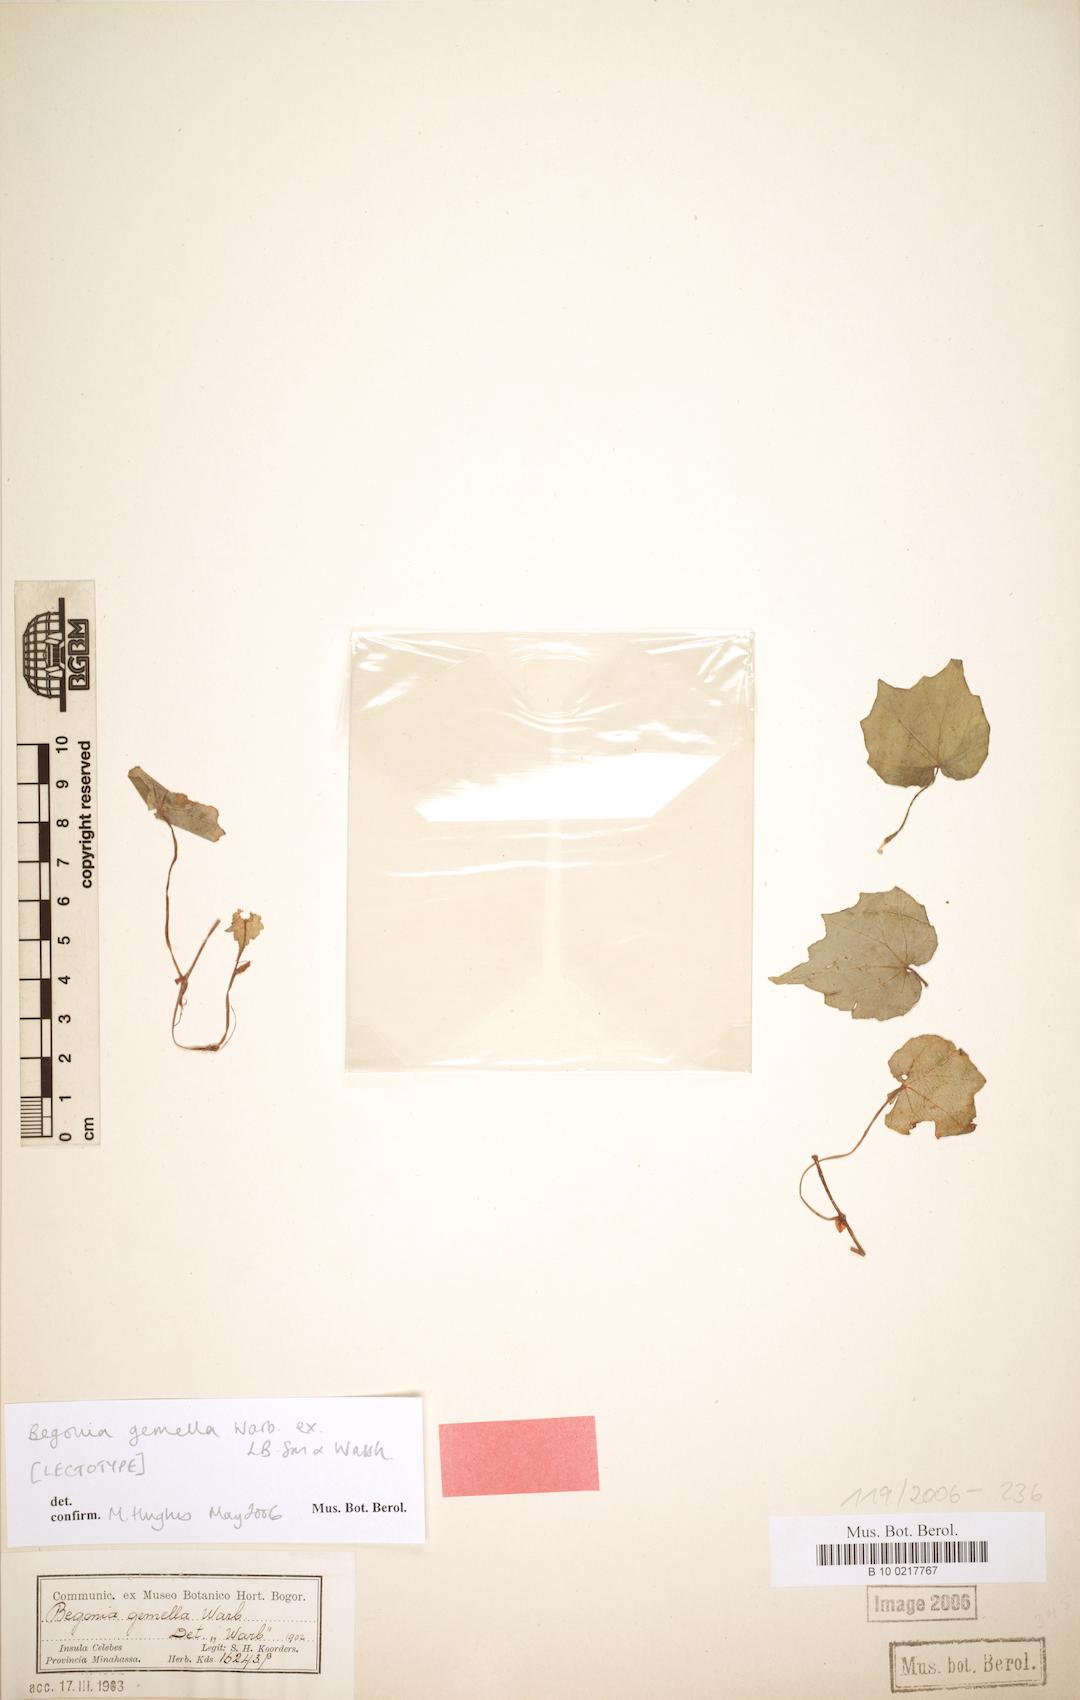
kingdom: Plantae
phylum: Tracheophyta
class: Magnoliopsida
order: Cucurbitales
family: Begoniaceae
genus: Begonia
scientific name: Begonia gemella
